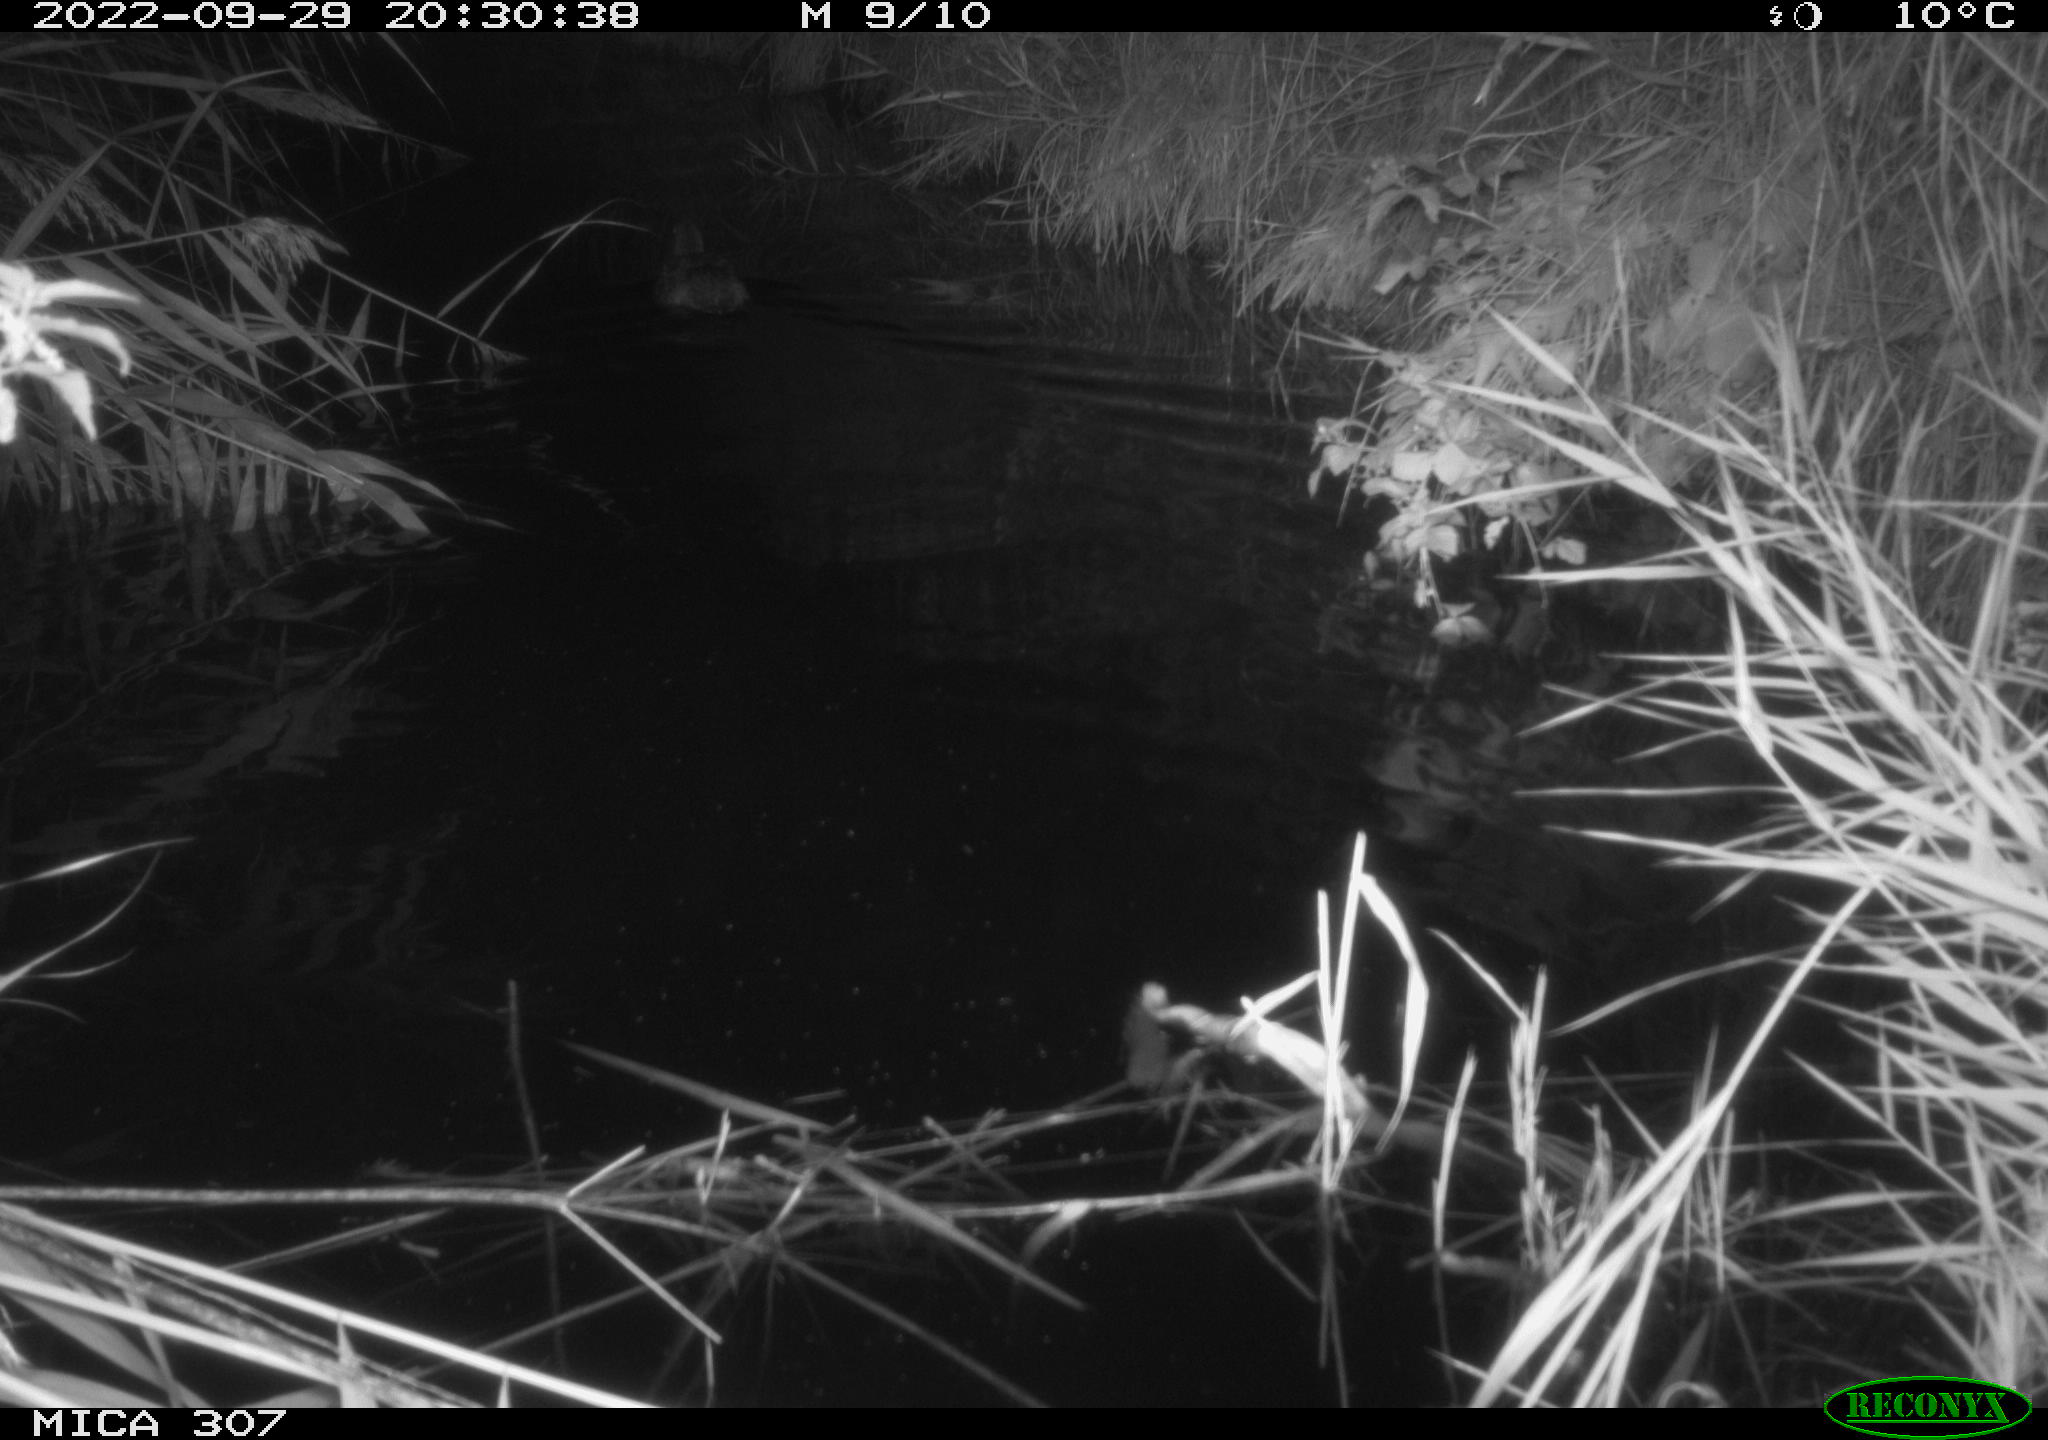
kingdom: Animalia
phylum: Chordata
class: Aves
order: Anseriformes
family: Anatidae
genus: Anas
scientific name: Anas
